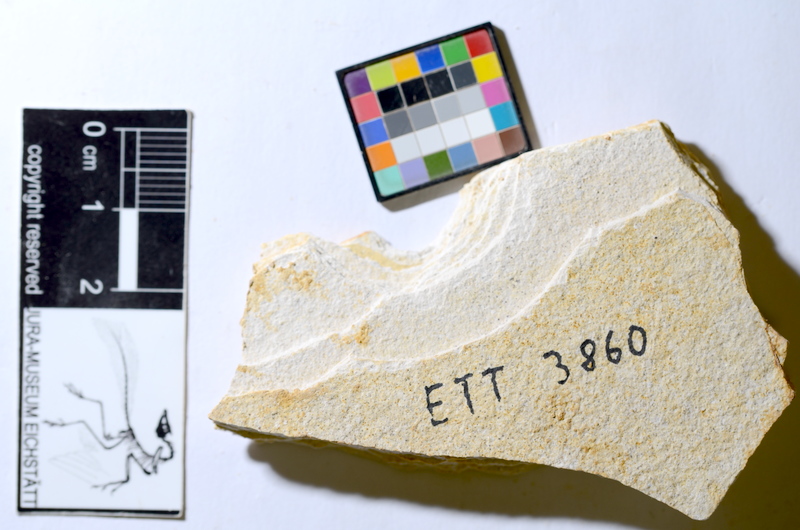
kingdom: Animalia
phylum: Chordata
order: Salmoniformes
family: Orthogonikleithridae
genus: Orthogonikleithrus
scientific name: Orthogonikleithrus hoelli
